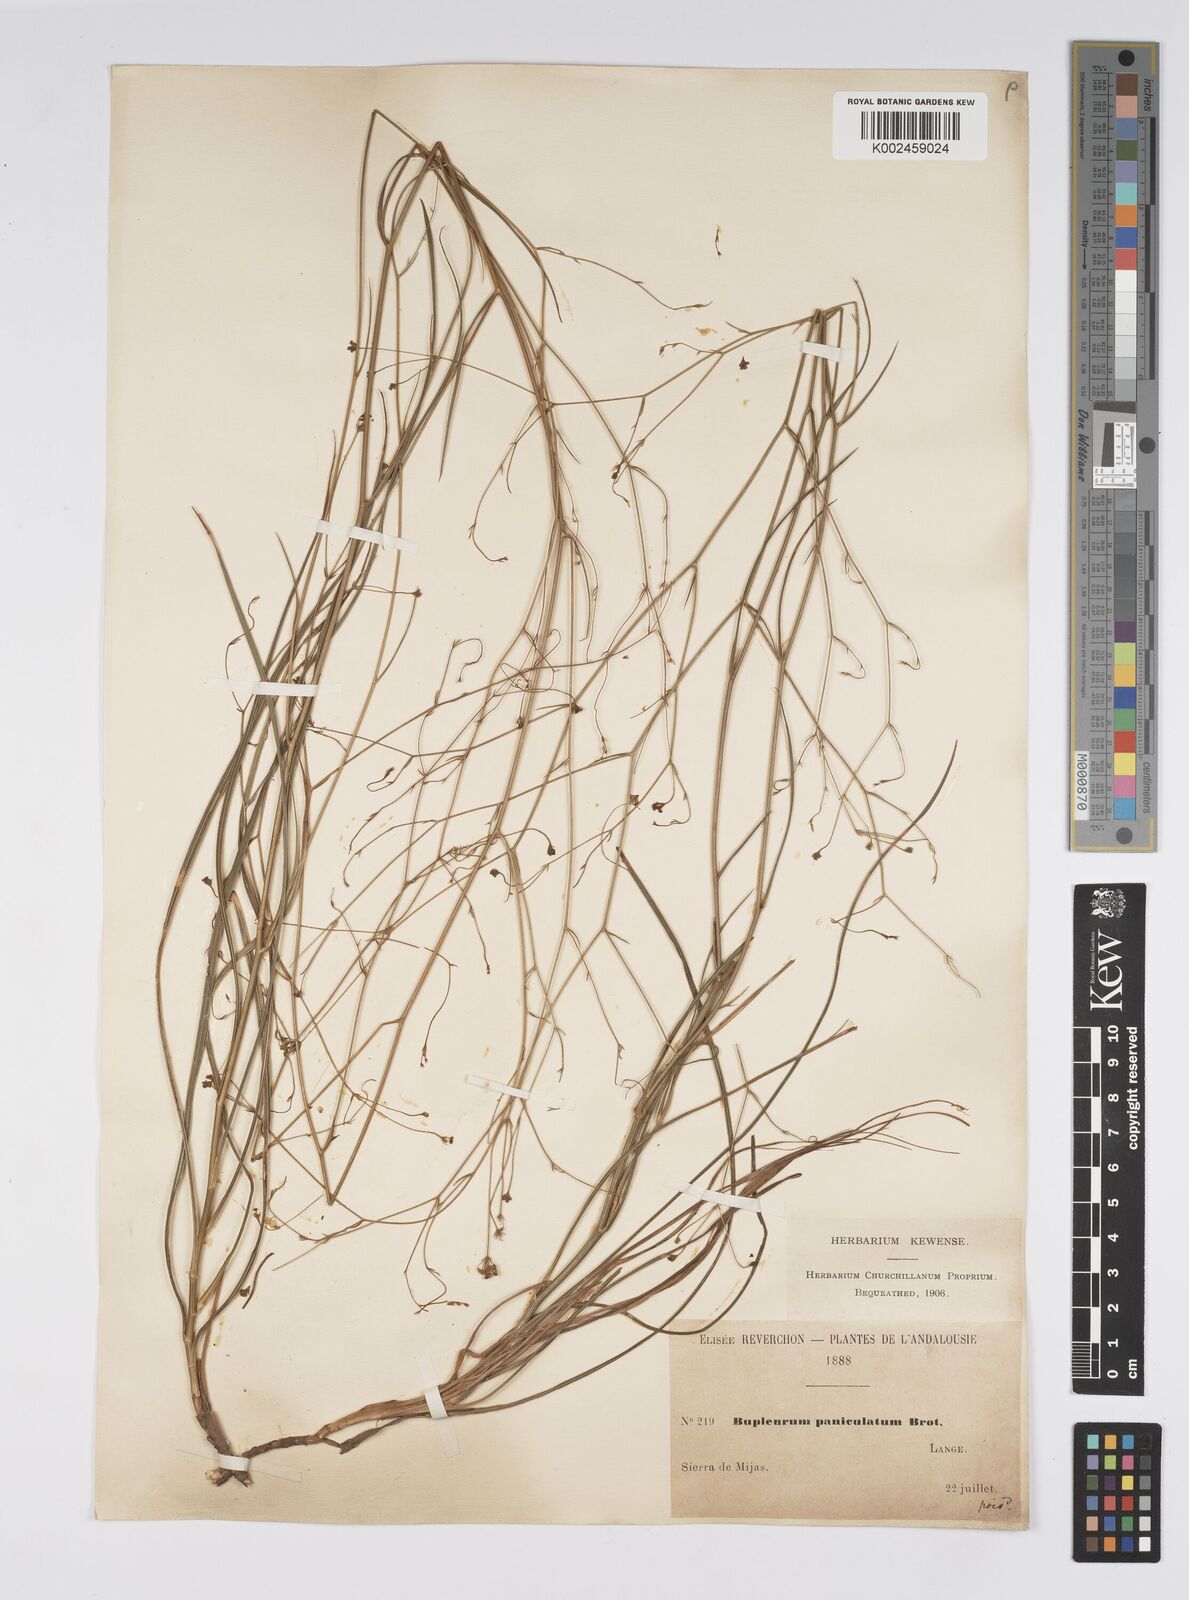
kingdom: Plantae
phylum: Tracheophyta
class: Magnoliopsida
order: Apiales
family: Apiaceae
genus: Bupleurum
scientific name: Bupleurum rigidum
